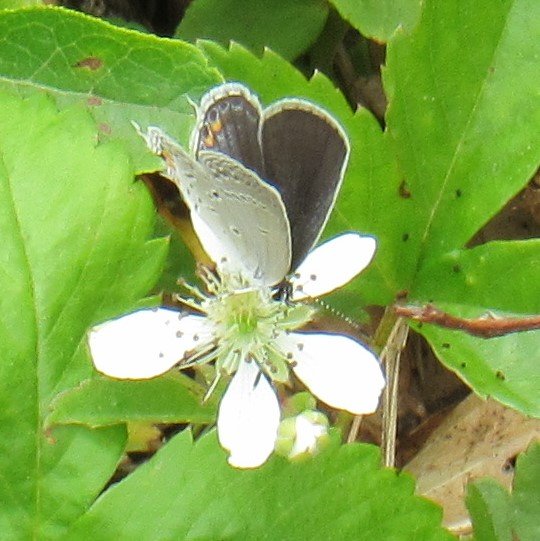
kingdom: Animalia
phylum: Arthropoda
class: Insecta
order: Lepidoptera
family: Lycaenidae
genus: Elkalyce
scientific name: Elkalyce comyntas
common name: Eastern Tailed-Blue
